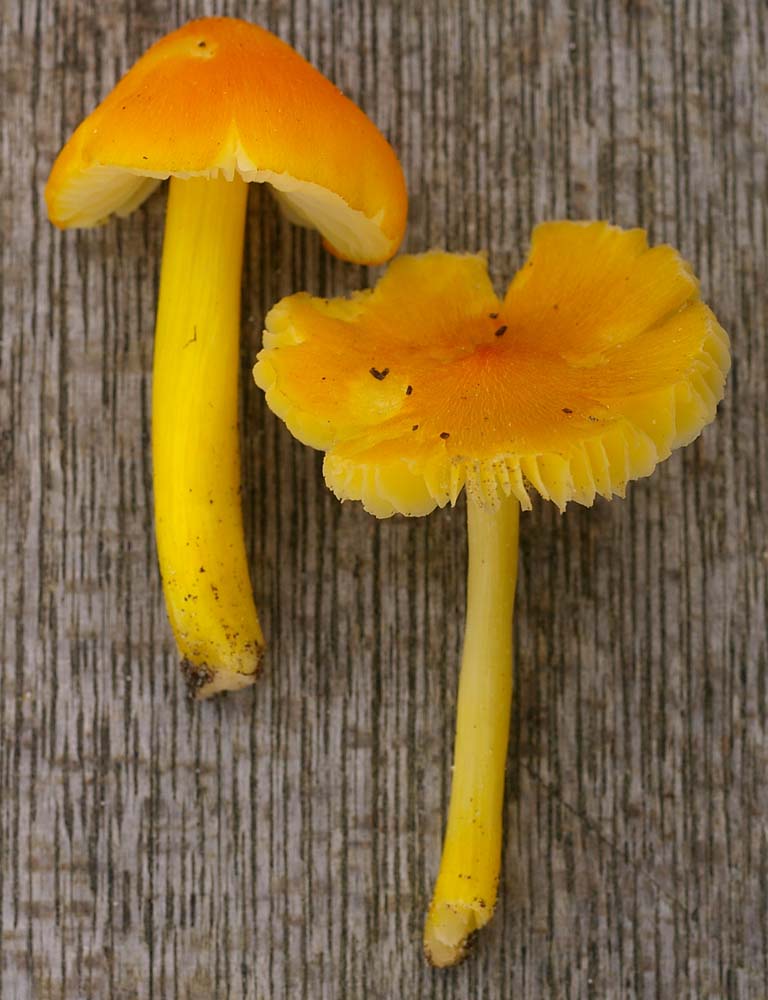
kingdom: Fungi
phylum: Basidiomycota
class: Agaricomycetes
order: Agaricales
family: Hygrophoraceae
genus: Hygrocybe
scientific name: Hygrocybe acutoconica
